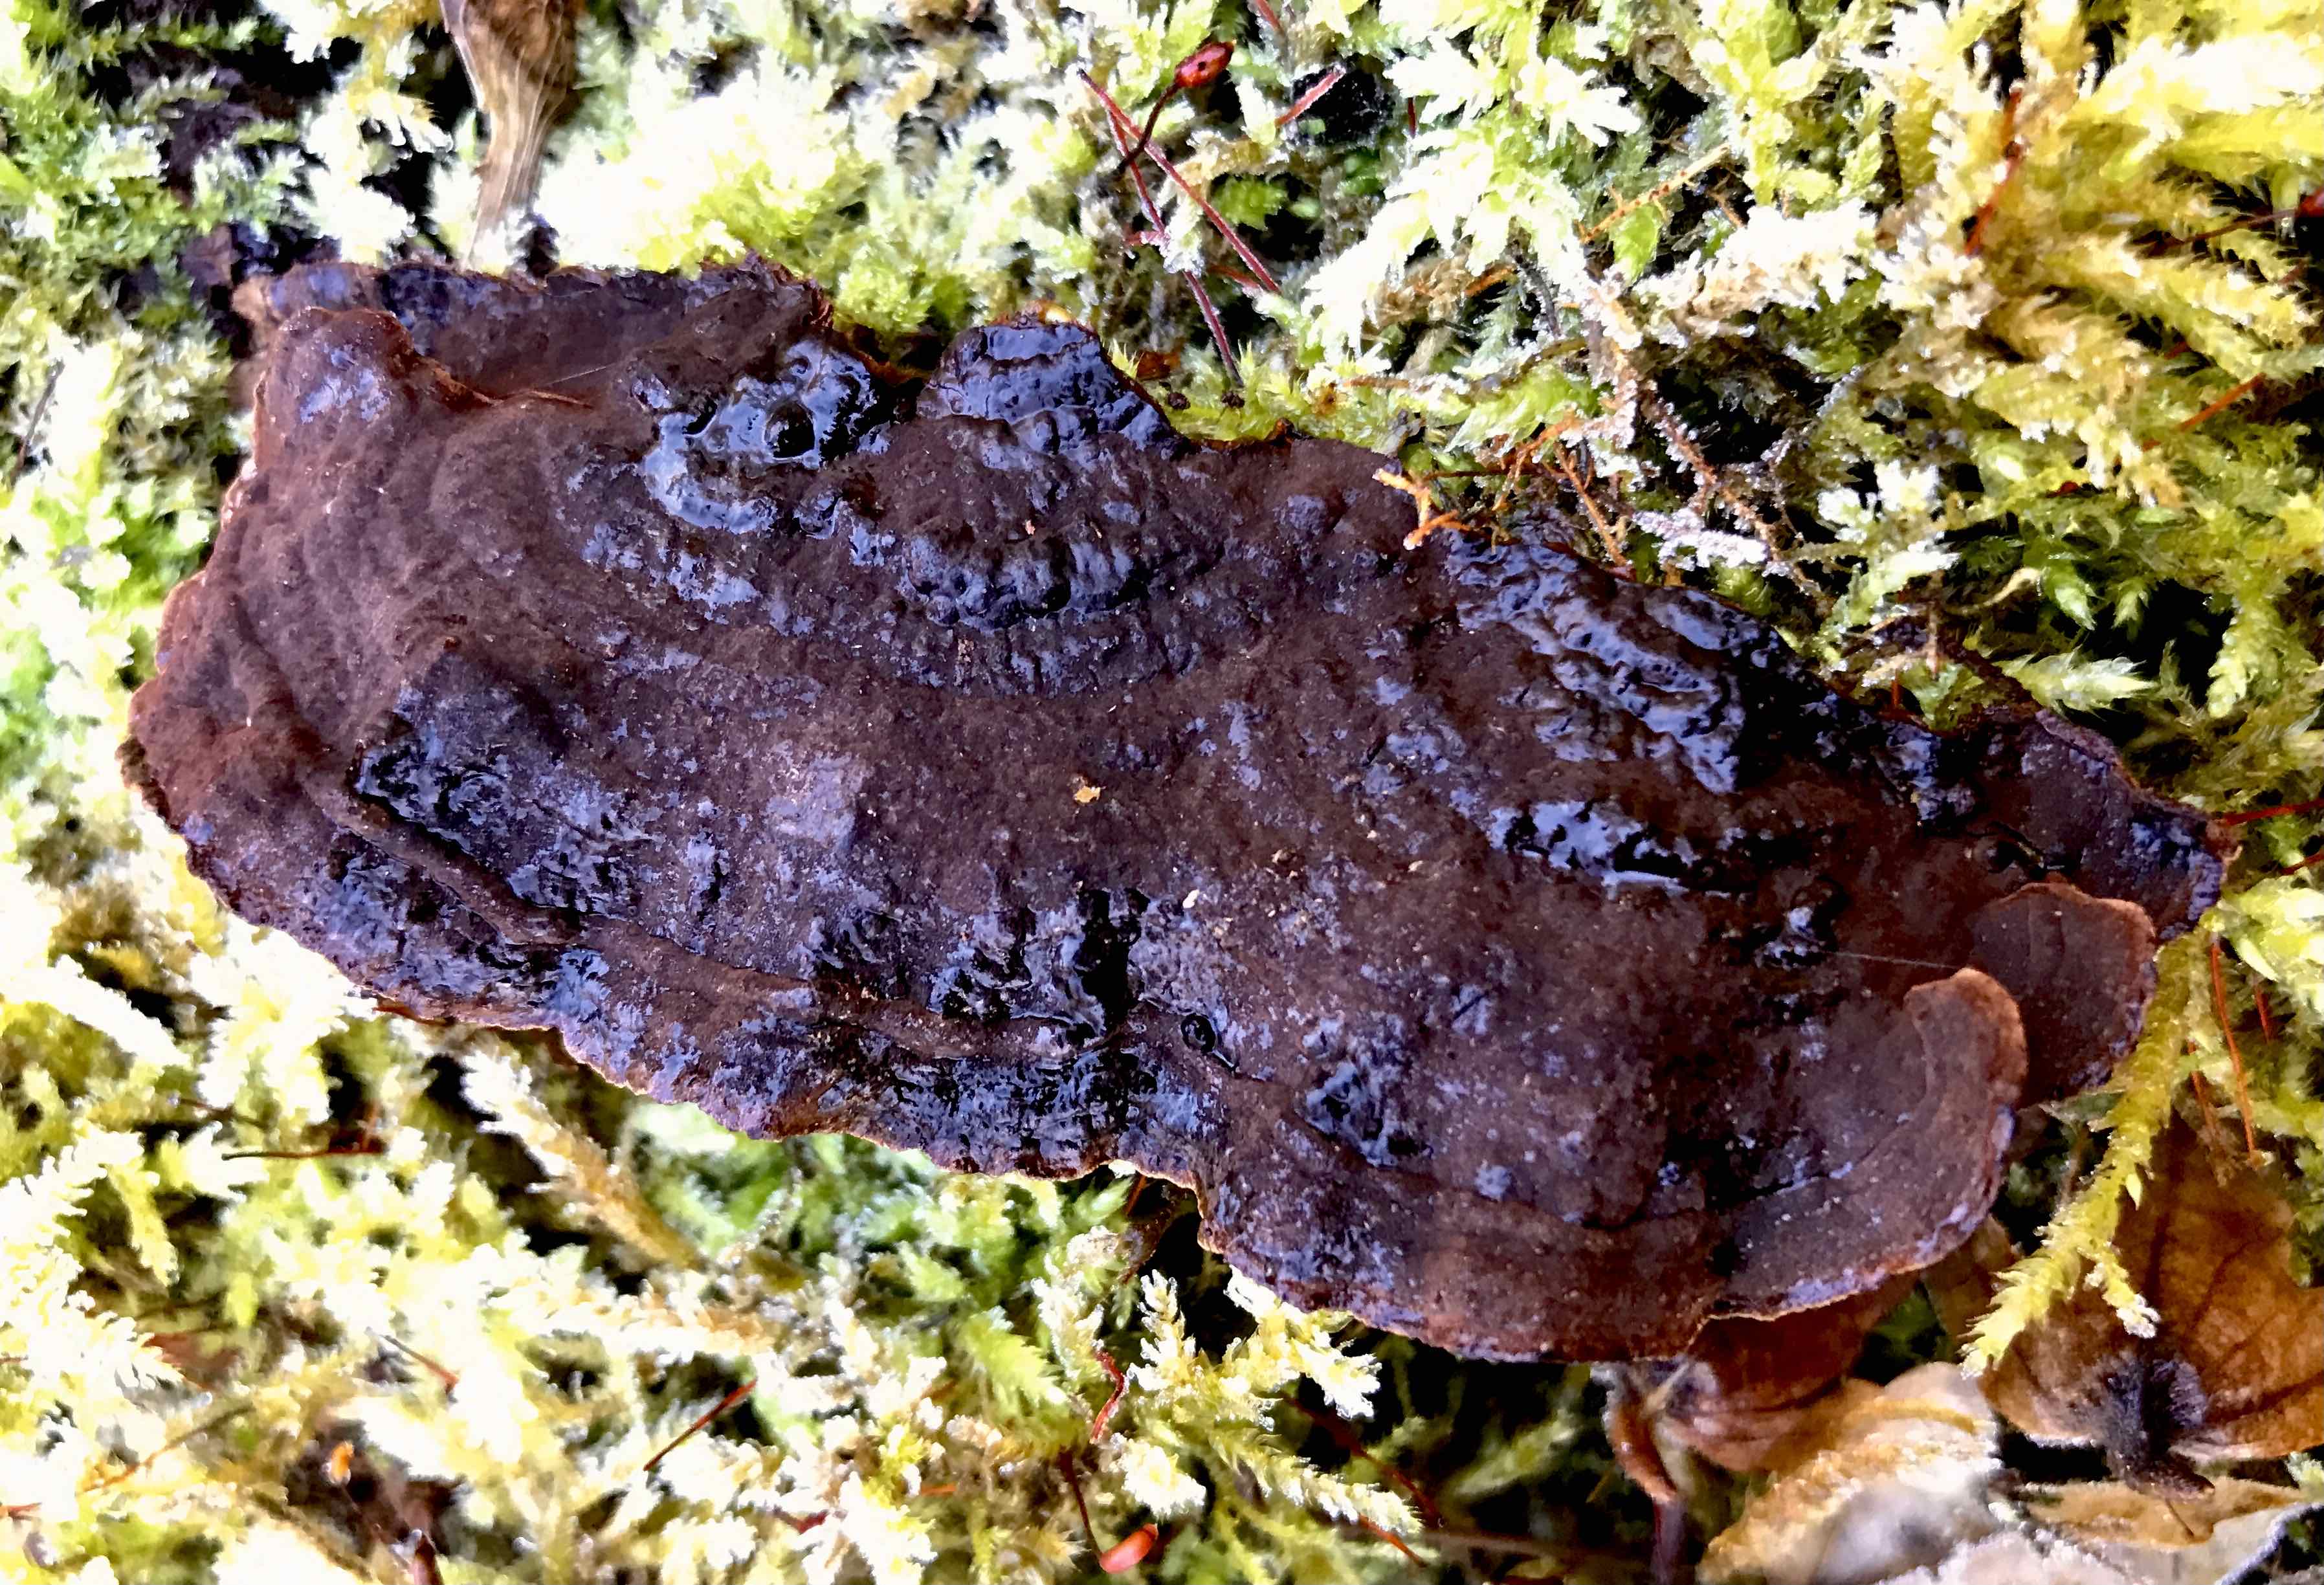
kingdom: Fungi
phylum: Basidiomycota
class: Agaricomycetes
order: Hymenochaetales
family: Hymenochaetaceae
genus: Hymenochaete
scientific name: Hymenochaete rubiginosa
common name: stiv ruslædersvamp
